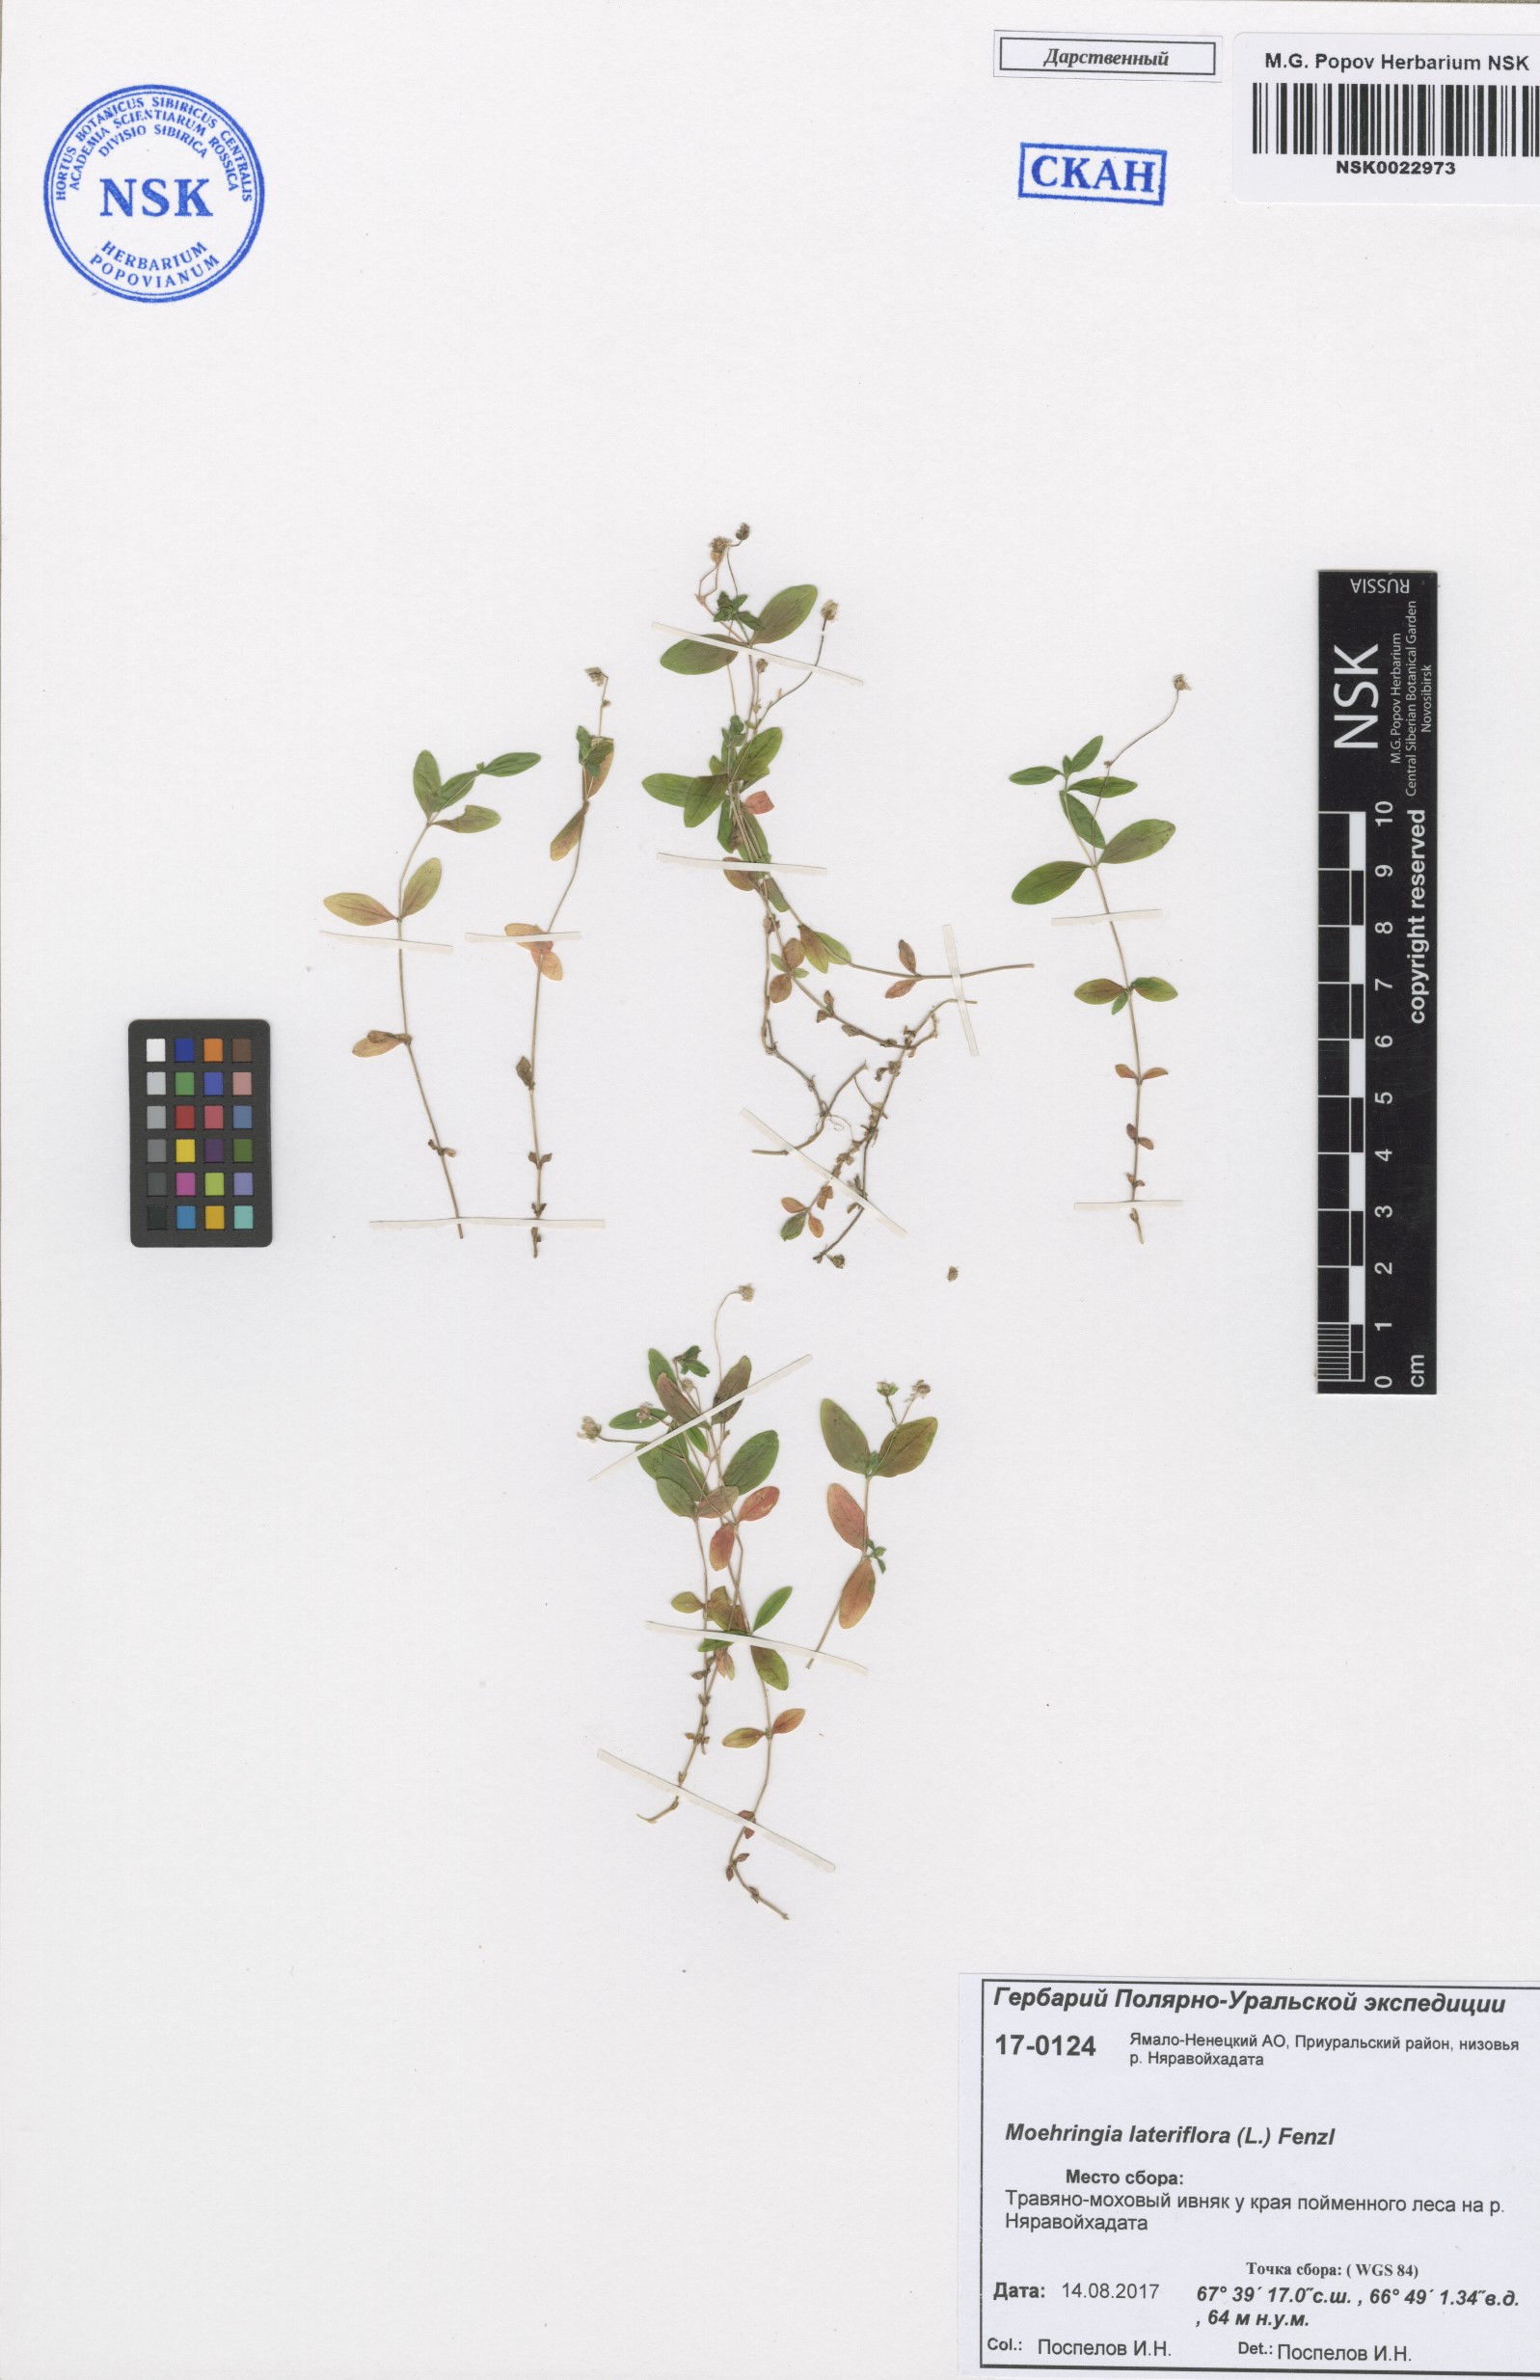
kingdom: Plantae
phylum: Tracheophyta
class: Magnoliopsida
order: Caryophyllales
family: Caryophyllaceae
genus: Moehringia
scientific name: Moehringia lateriflora
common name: Blunt-leaved sandwort
